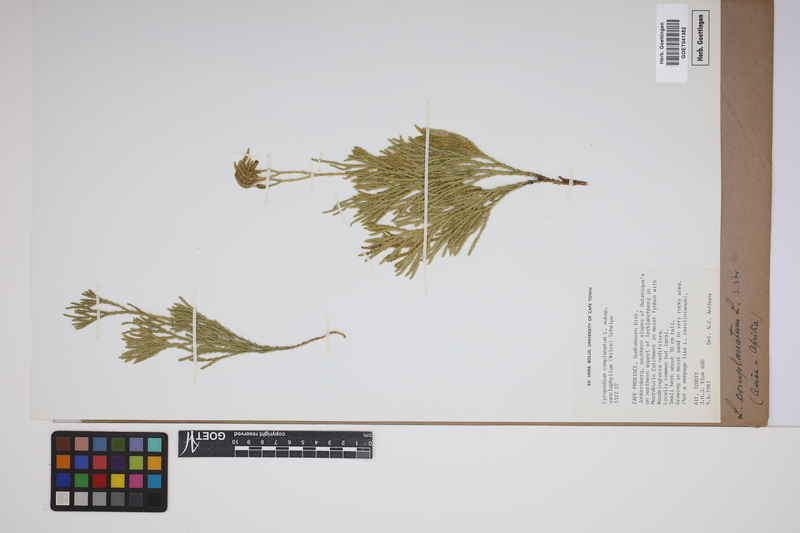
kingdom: Plantae
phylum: Tracheophyta
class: Lycopodiopsida
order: Lycopodiales
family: Lycopodiaceae
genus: Diphasiastrum
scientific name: Diphasiastrum complanatum
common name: Northern running-pine
